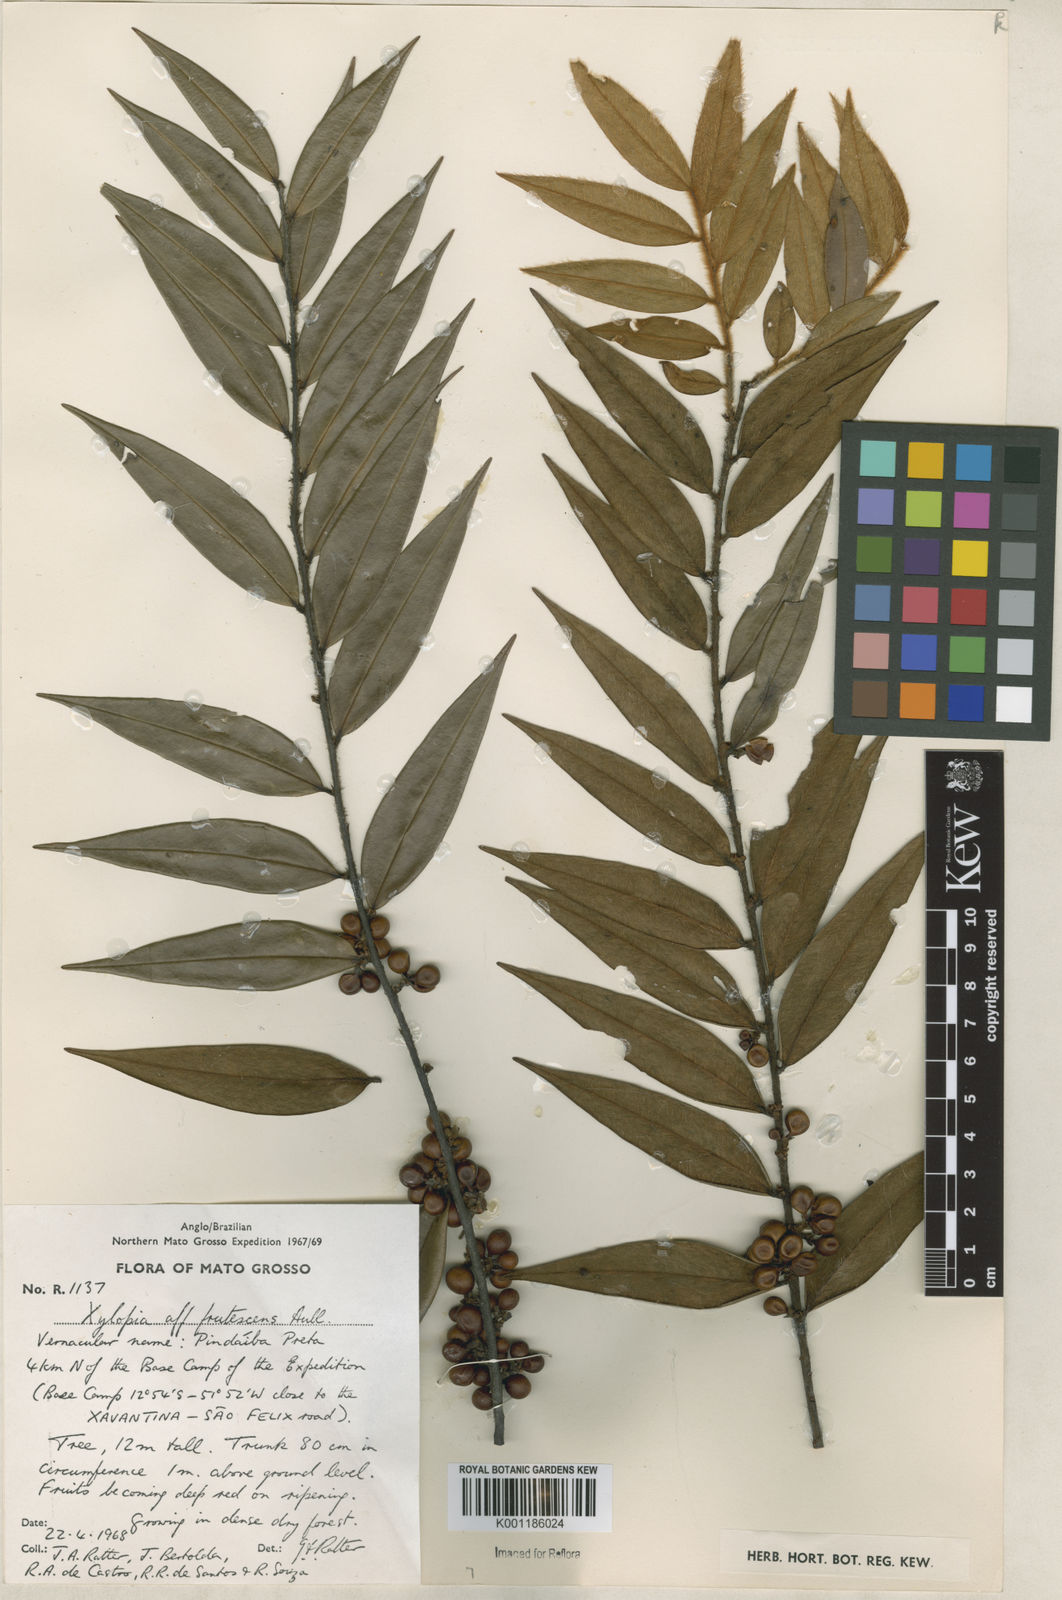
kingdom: Plantae
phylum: Tracheophyta
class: Magnoliopsida
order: Magnoliales
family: Annonaceae
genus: Xylopia
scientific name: Xylopia frutescens
